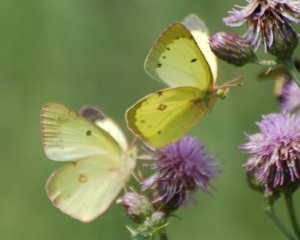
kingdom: Animalia
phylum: Arthropoda
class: Insecta
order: Lepidoptera
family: Pieridae
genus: Colias
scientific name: Colias philodice
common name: Clouded Sulphur
